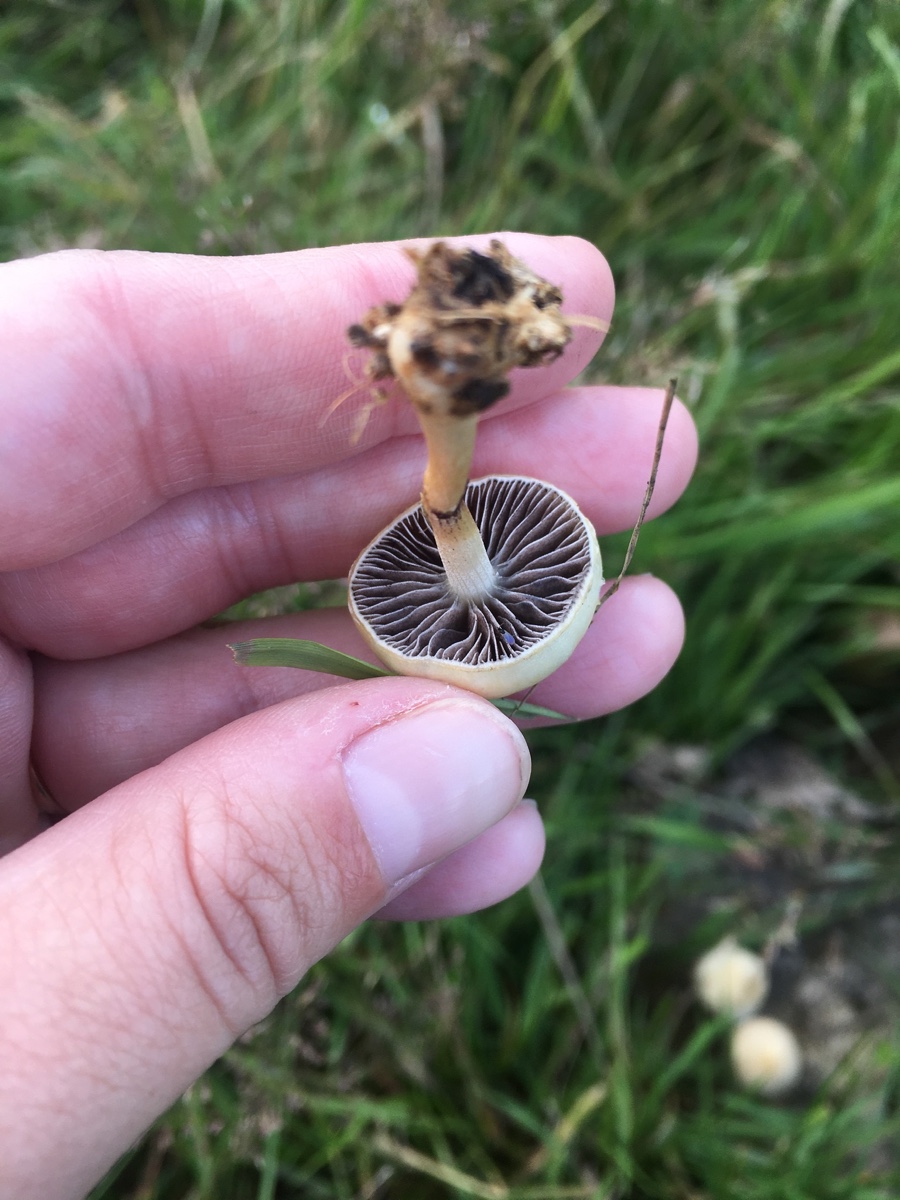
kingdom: Fungi
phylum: Basidiomycota
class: Agaricomycetes
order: Agaricales
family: Strophariaceae
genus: Protostropharia
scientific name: Protostropharia semiglobata
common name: halvkugleformet bredblad
